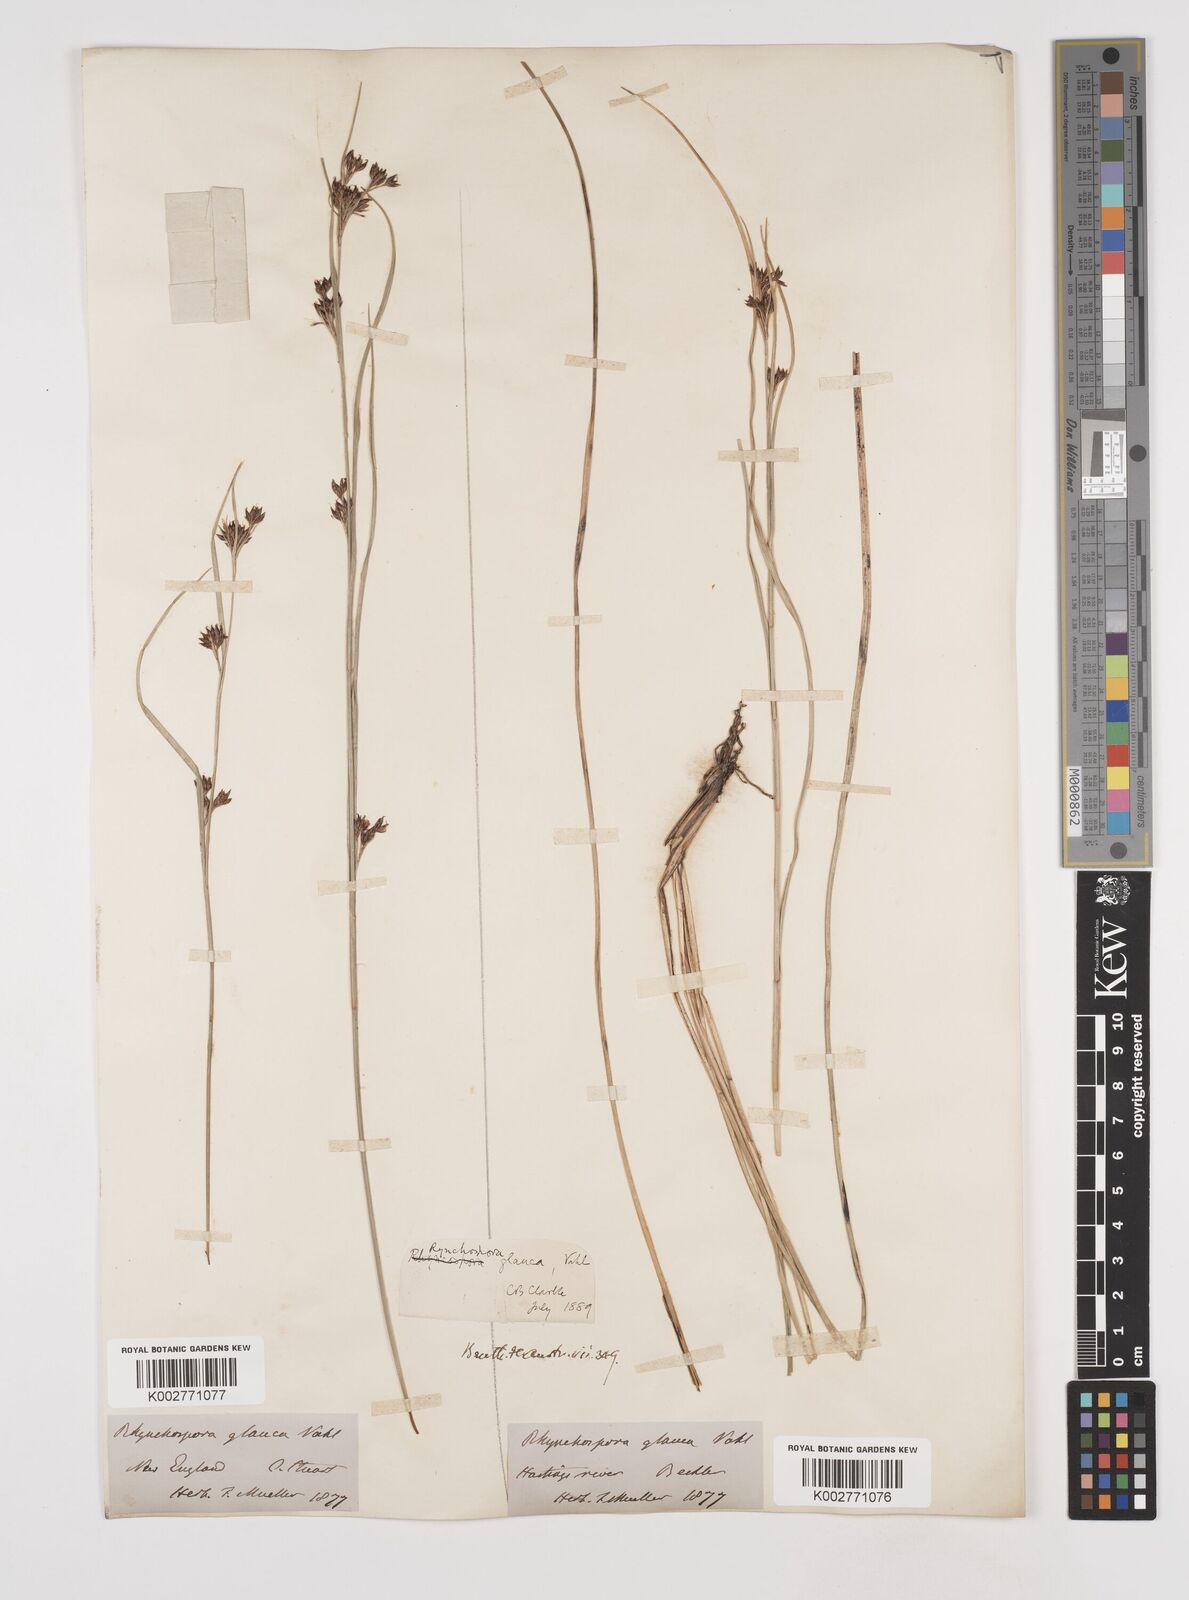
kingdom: Plantae
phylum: Tracheophyta
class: Liliopsida
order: Poales
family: Cyperaceae
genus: Rhynchospora
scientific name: Rhynchospora rugosa
